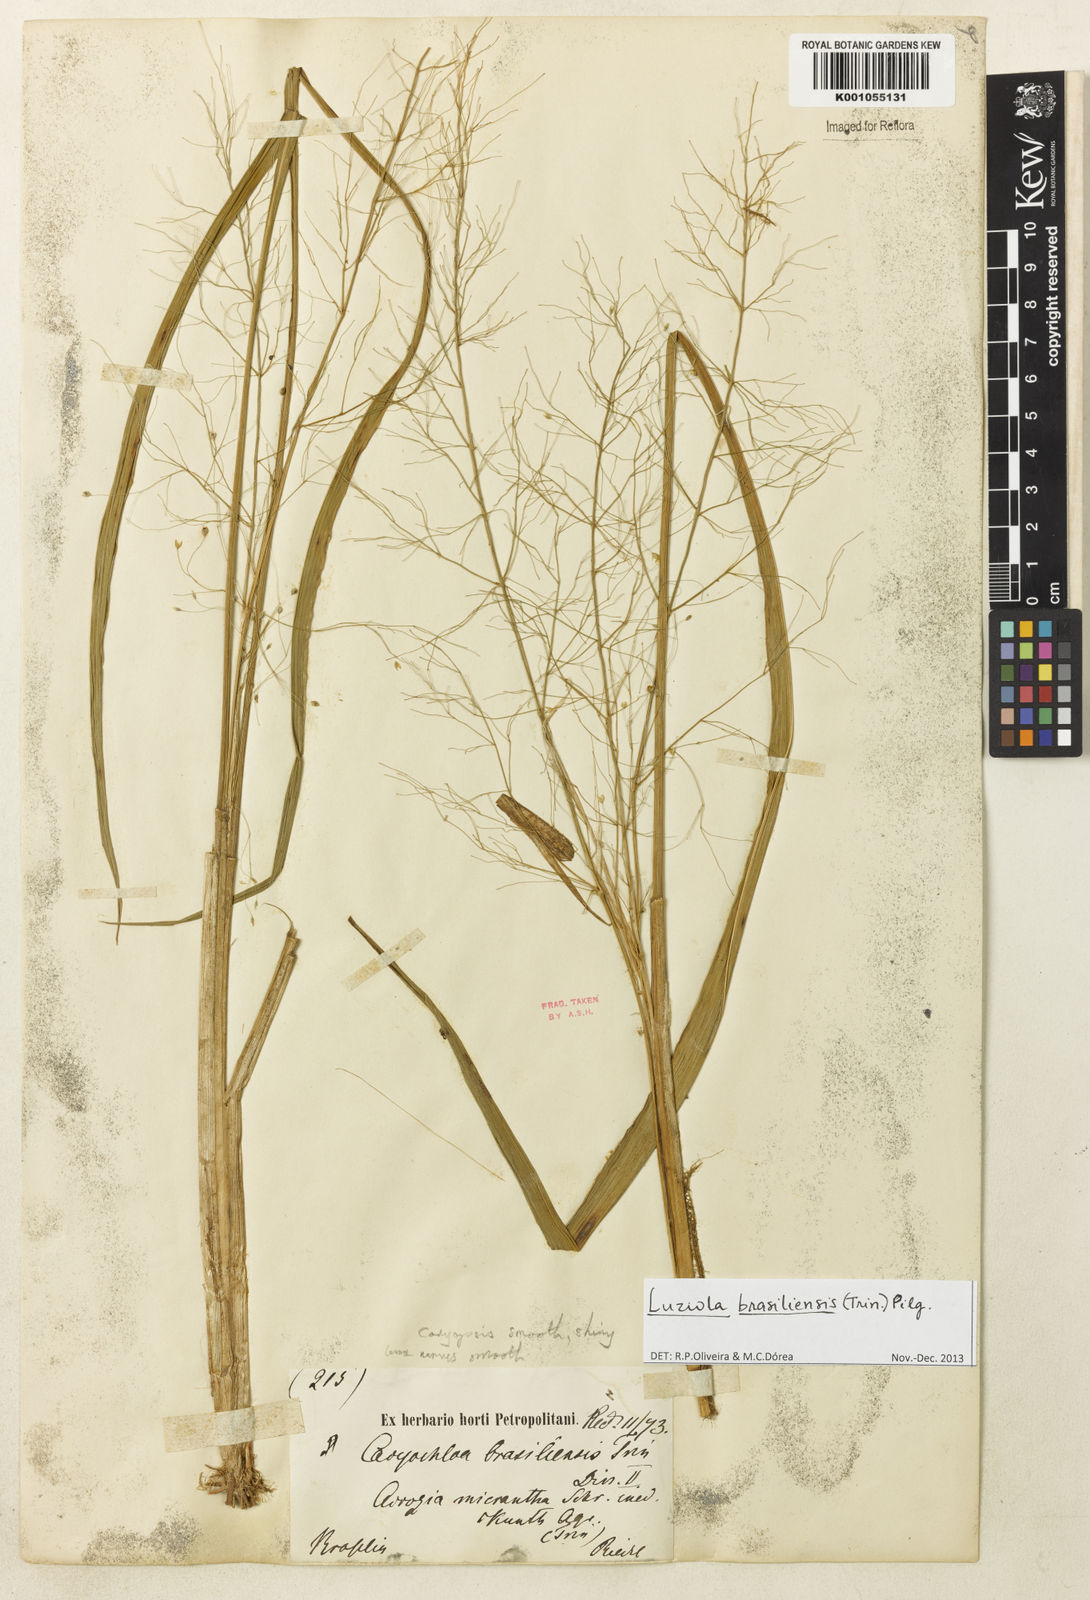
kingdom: Plantae
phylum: Tracheophyta
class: Liliopsida
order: Poales
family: Poaceae
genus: Luziola
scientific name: Luziola
